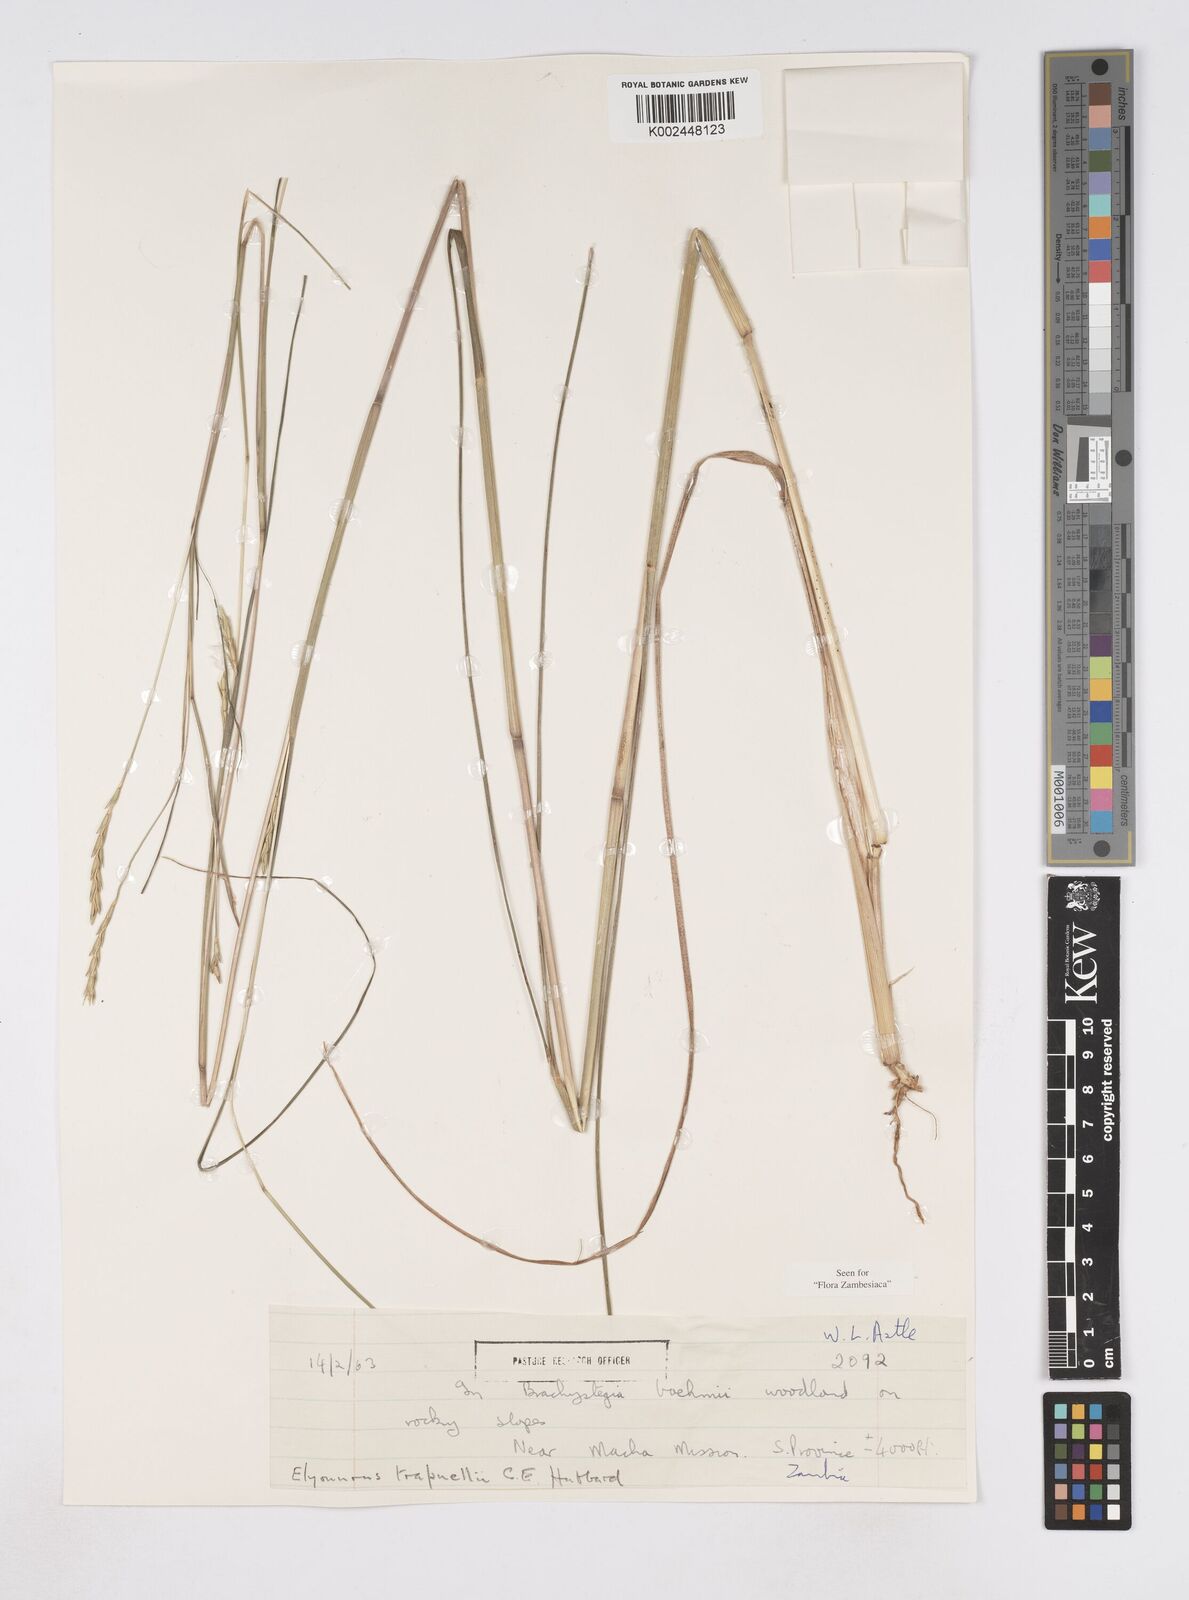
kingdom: Plantae
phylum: Tracheophyta
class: Liliopsida
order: Poales
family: Poaceae
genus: Elionurus
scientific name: Elionurus tripsacoides
